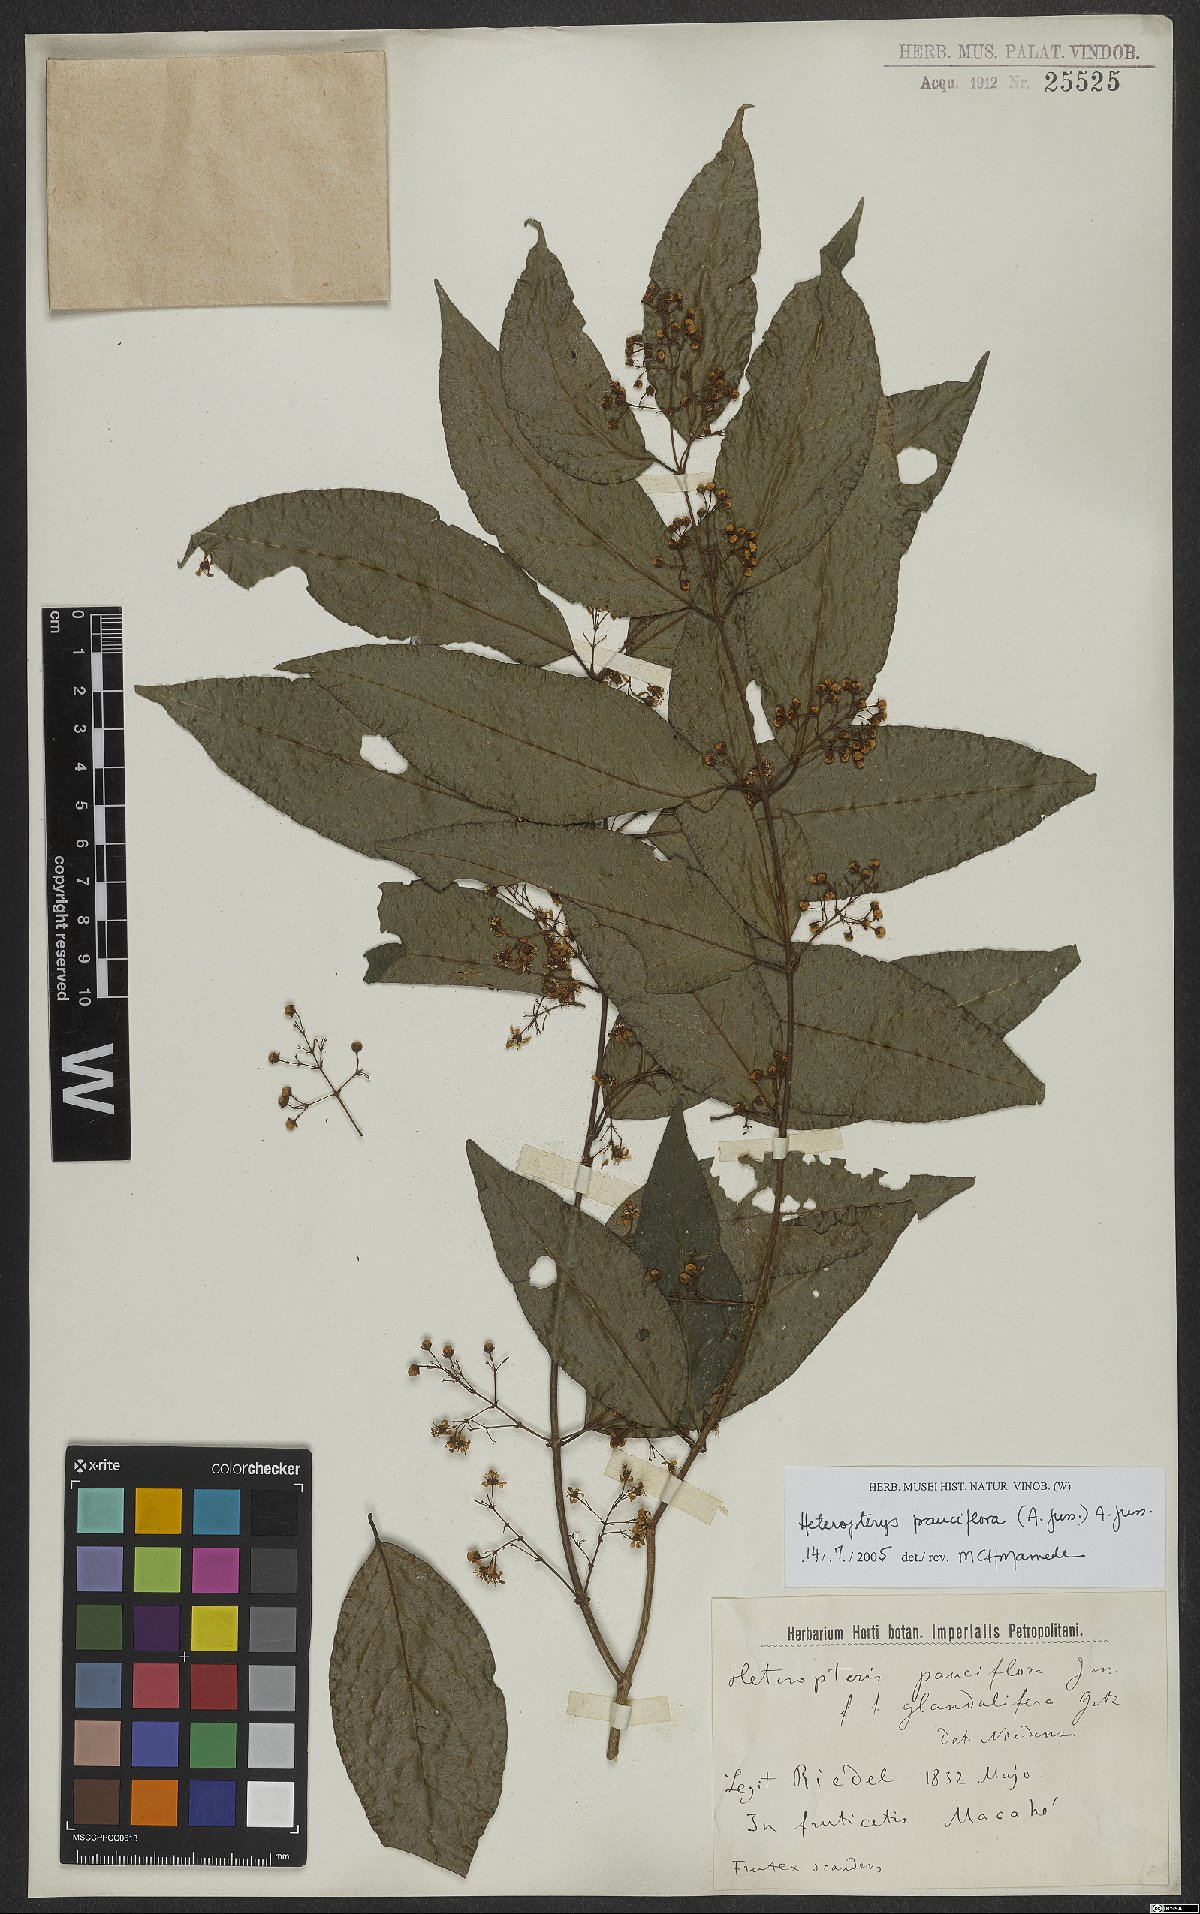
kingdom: Plantae
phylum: Tracheophyta
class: Magnoliopsida
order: Malpighiales
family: Malpighiaceae
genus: Heteropterys
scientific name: Heteropterys pauciflora
